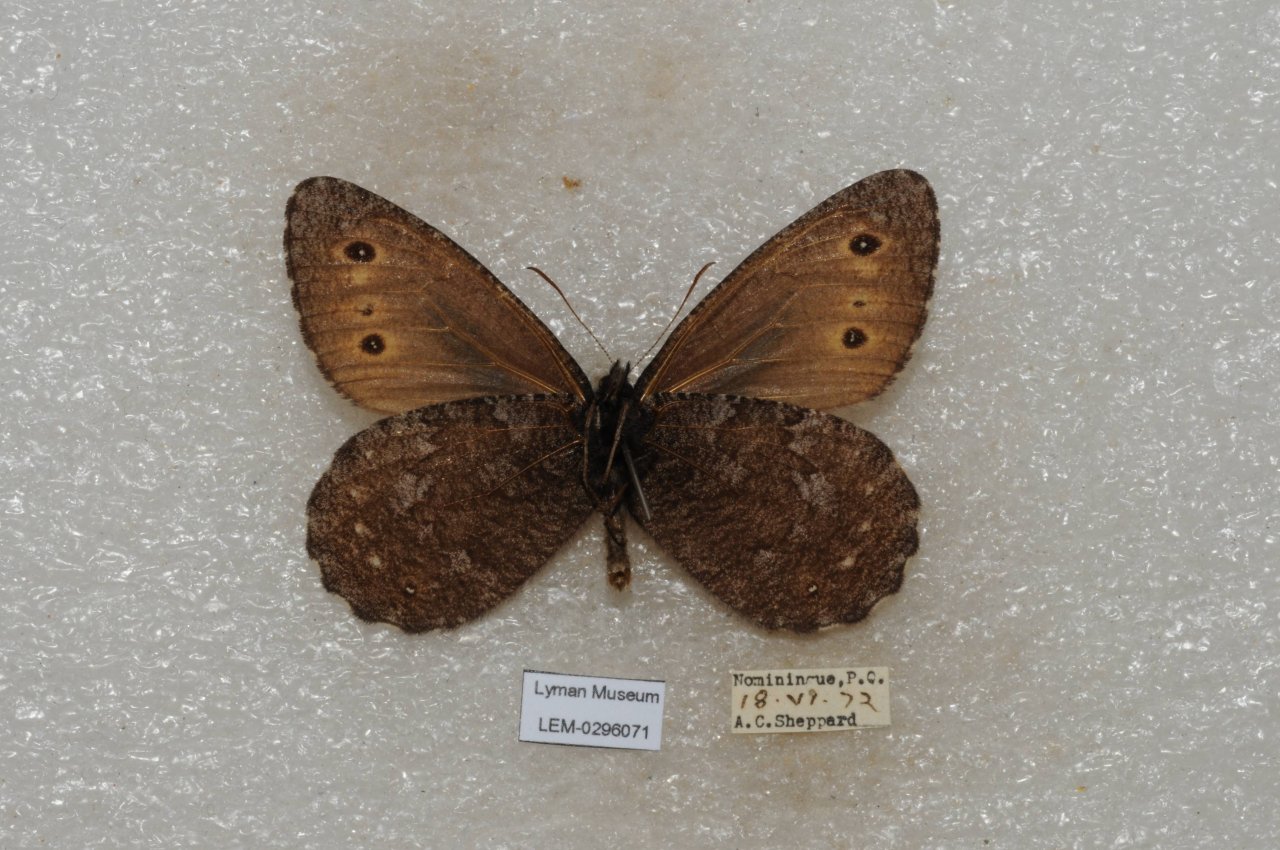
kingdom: Animalia
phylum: Arthropoda
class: Insecta
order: Lepidoptera
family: Nymphalidae
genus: Oeneis
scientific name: Oeneis jutta
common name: Jutta Arctic
